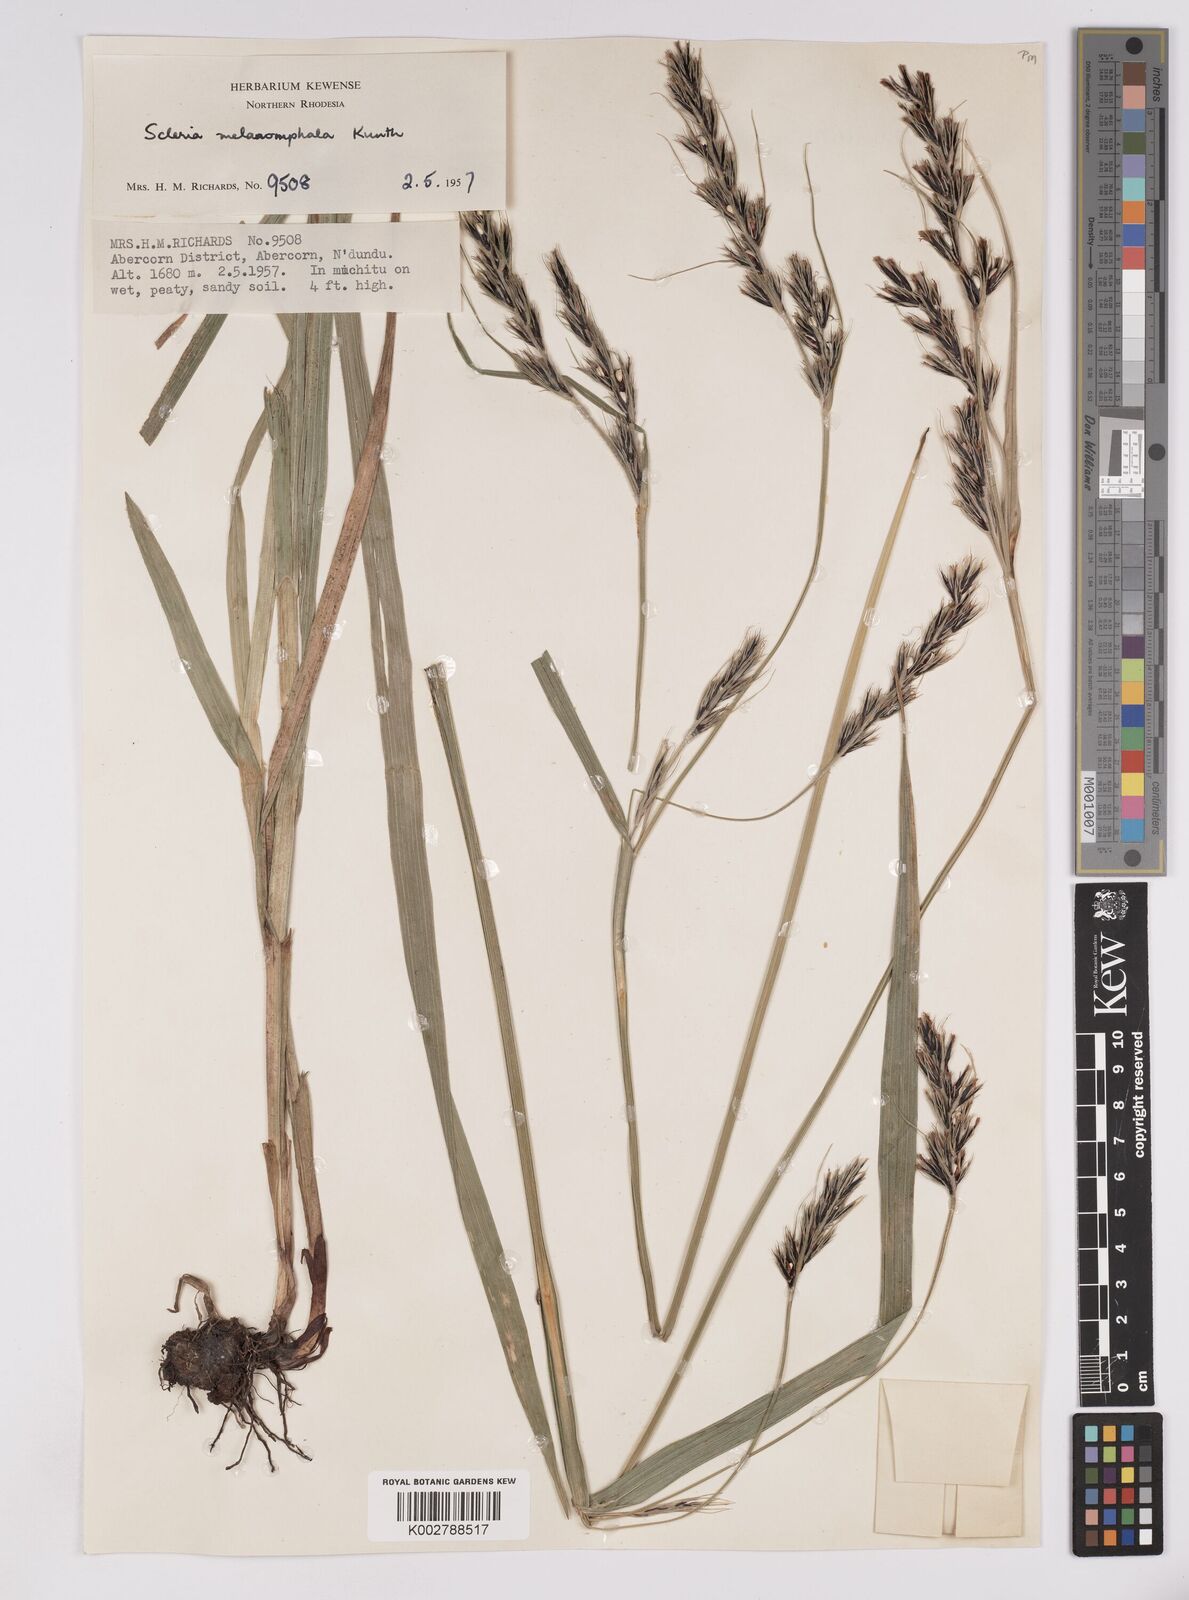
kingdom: Plantae
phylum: Tracheophyta
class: Liliopsida
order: Poales
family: Cyperaceae
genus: Scleria
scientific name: Scleria melanomphala
